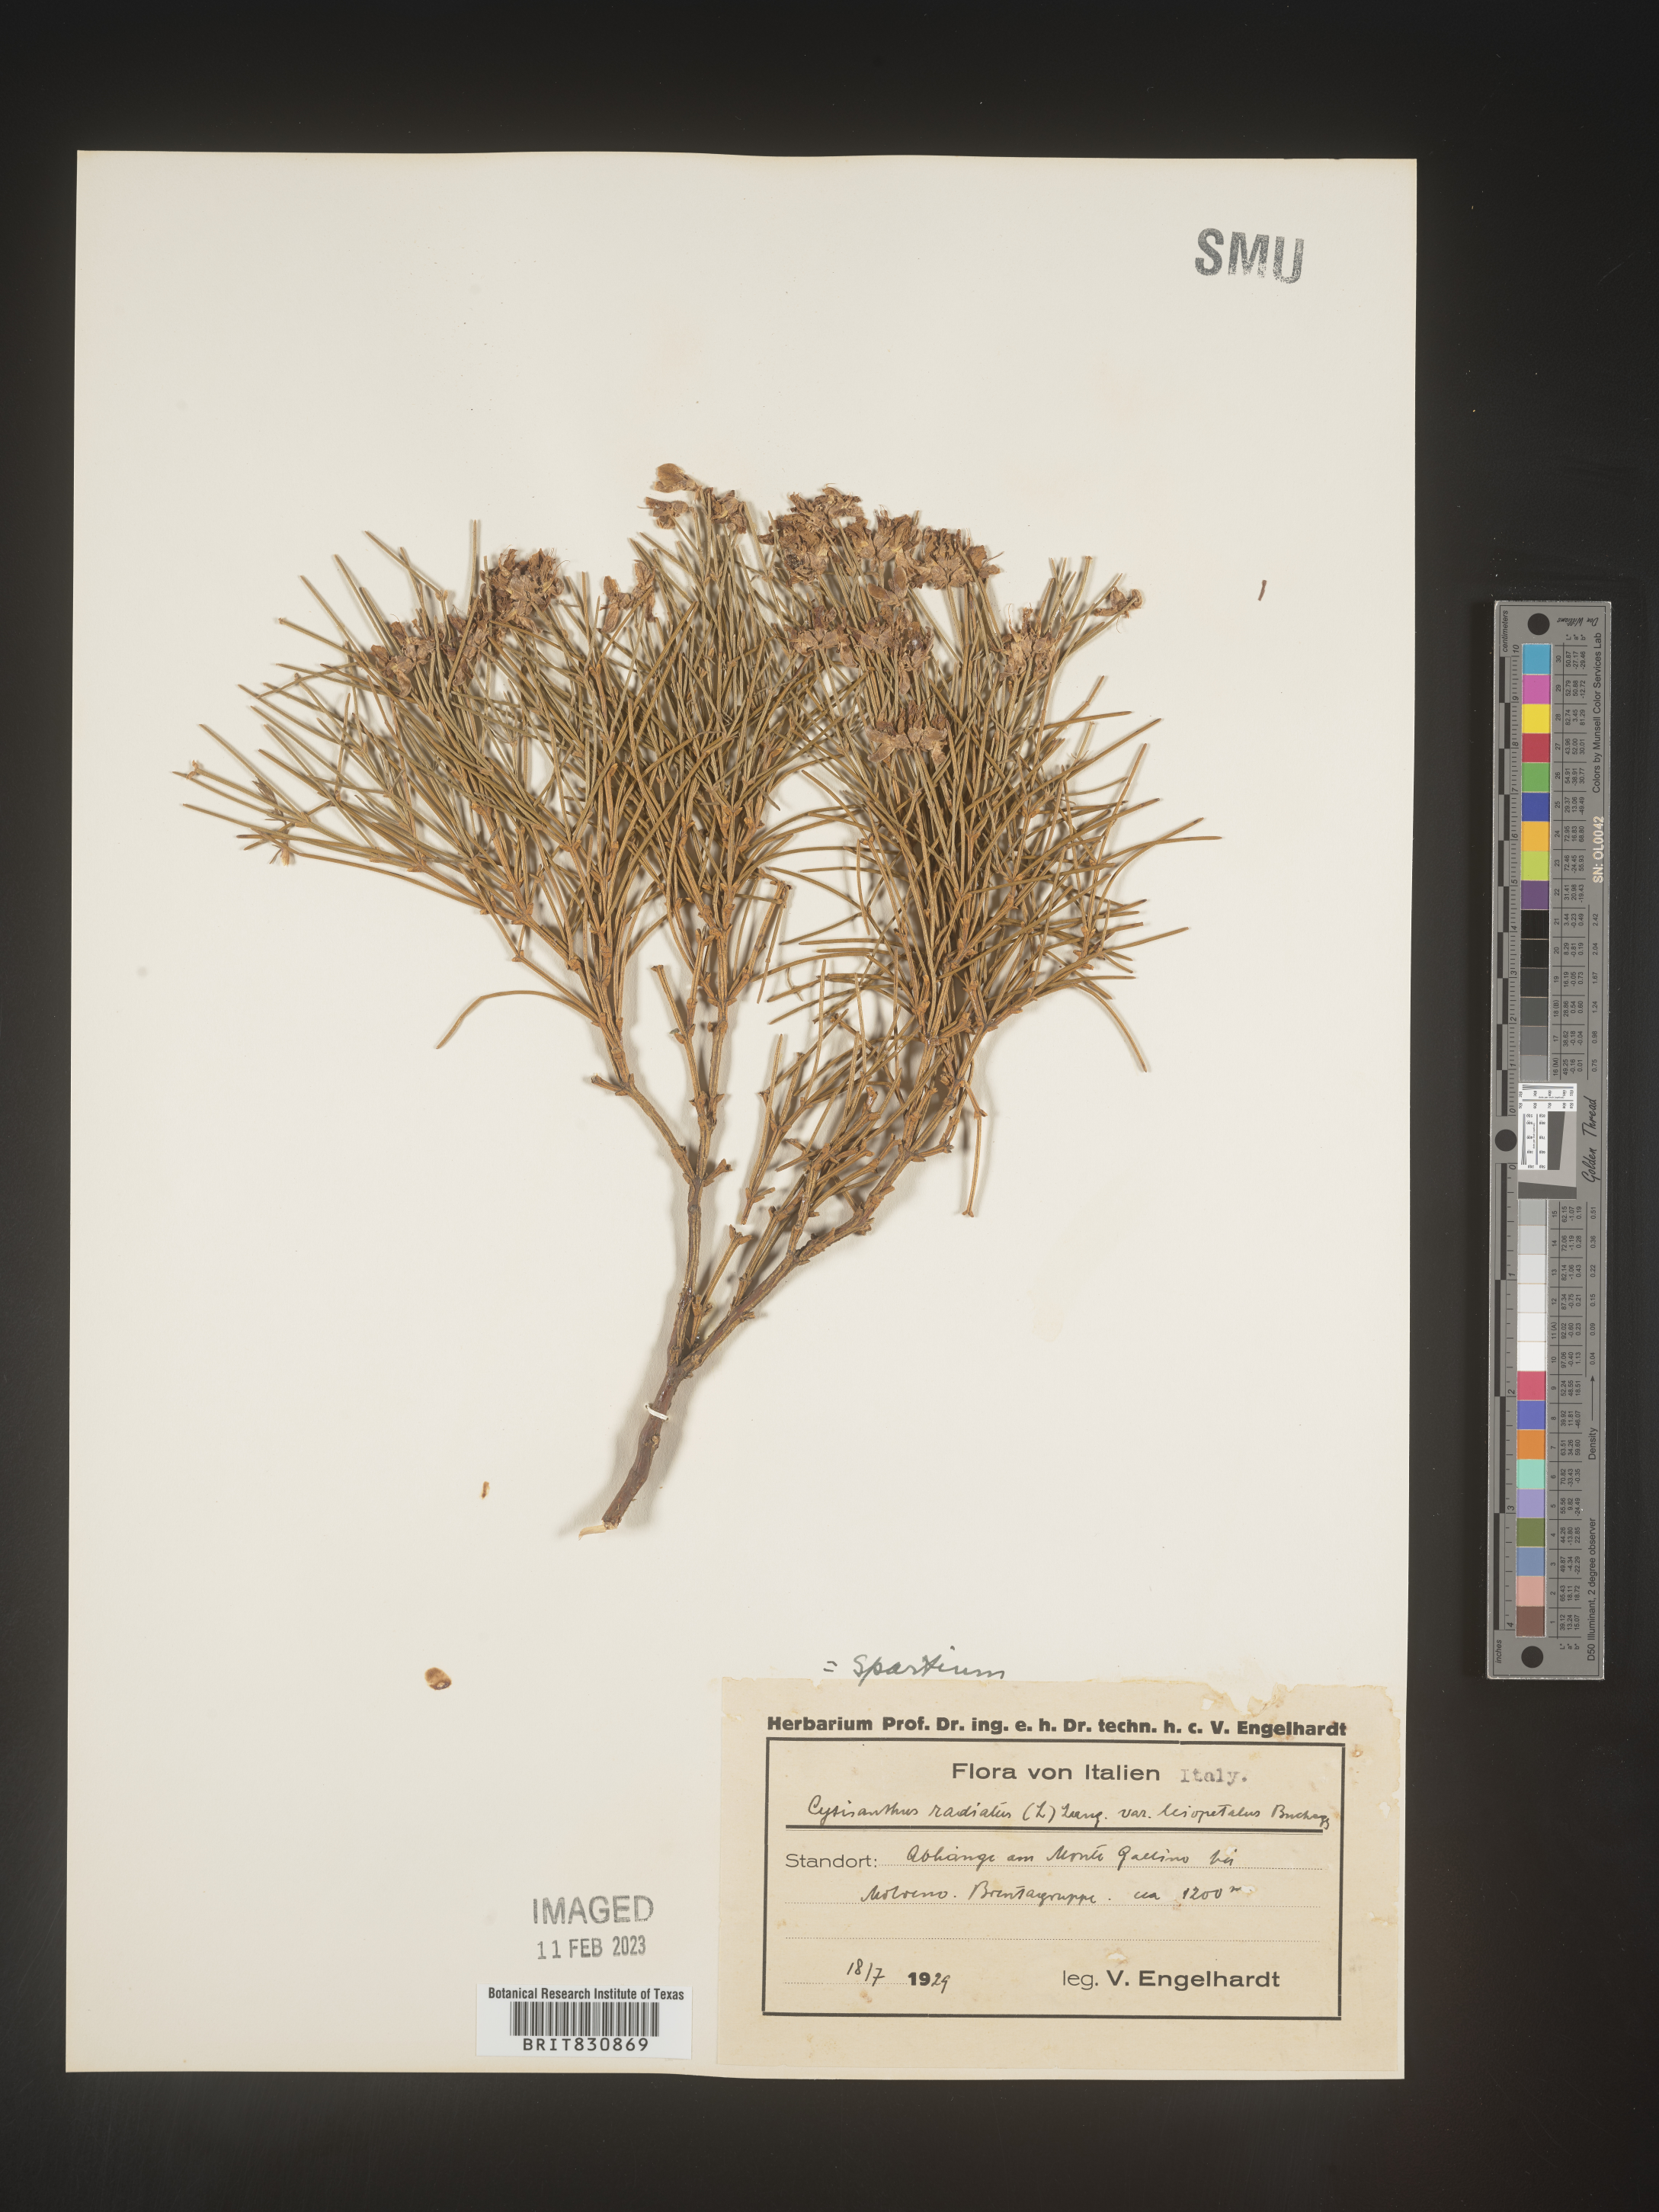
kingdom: Plantae
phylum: Tracheophyta
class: Magnoliopsida
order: Fabales
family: Fabaceae
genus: Spartium
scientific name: Spartium
